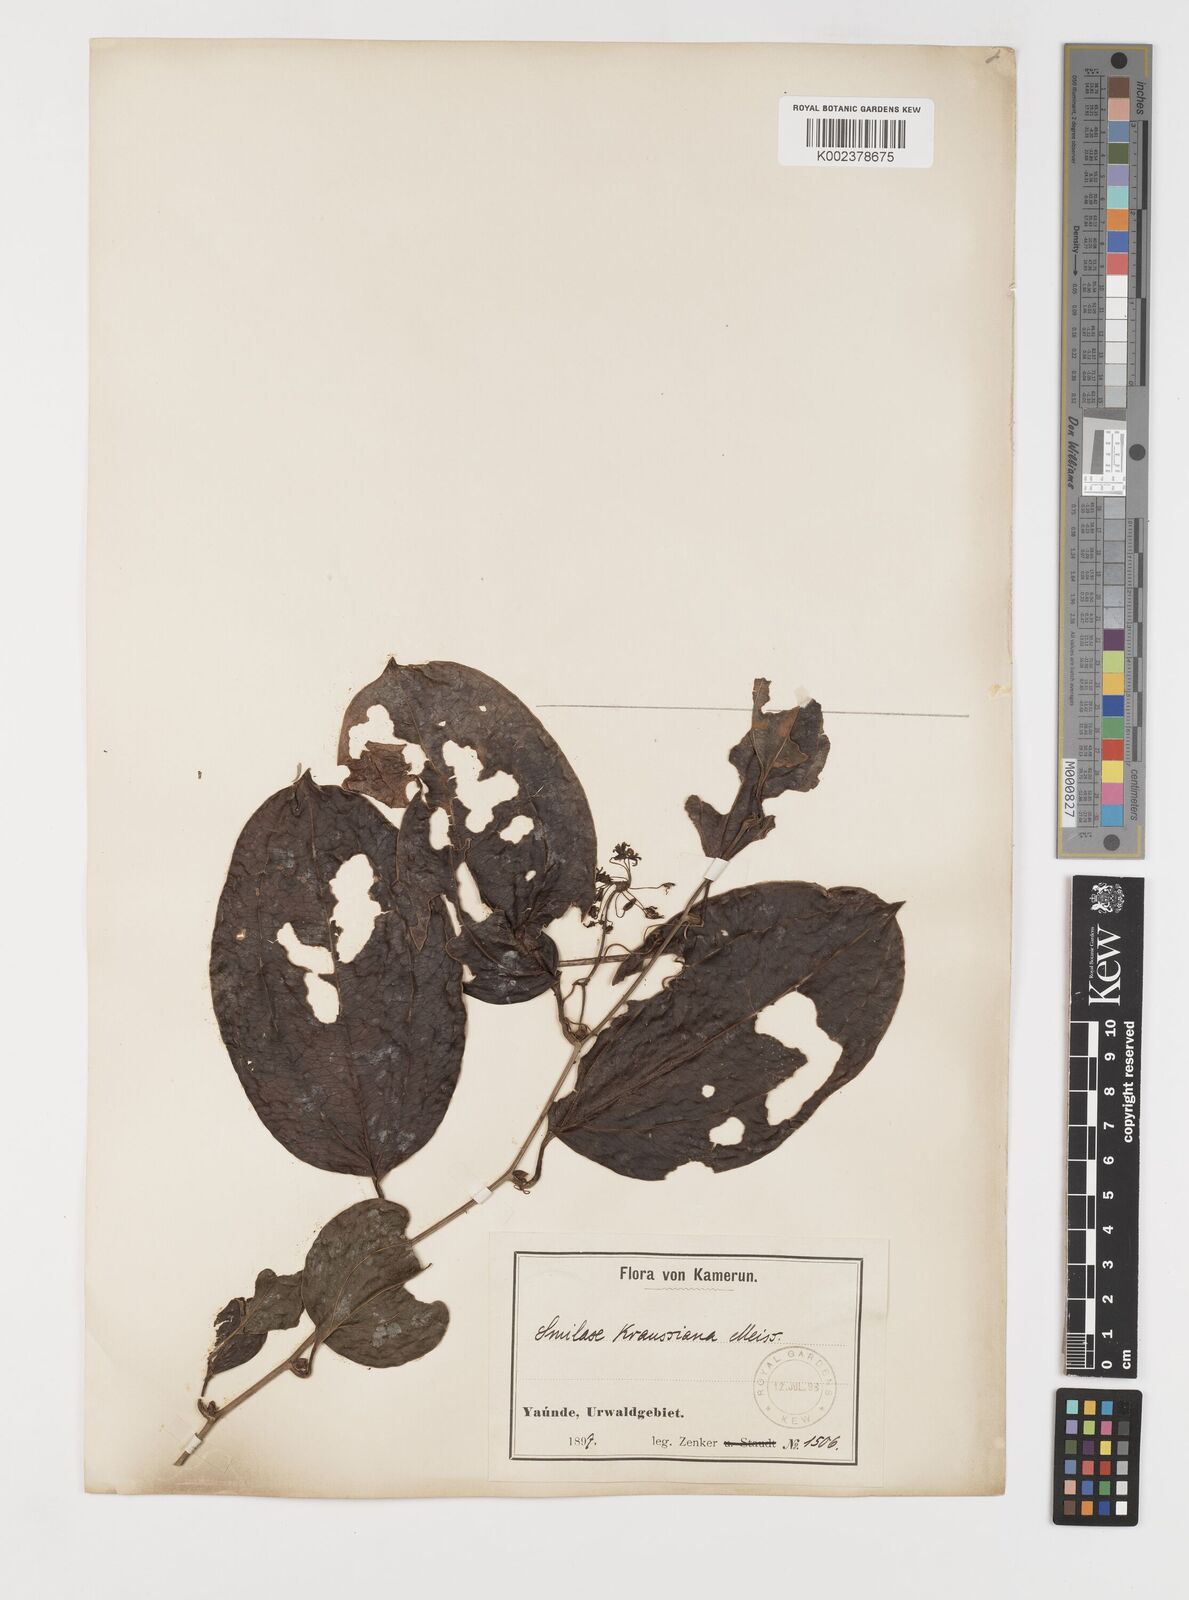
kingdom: Plantae
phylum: Tracheophyta
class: Liliopsida
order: Liliales
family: Smilacaceae
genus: Smilax
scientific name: Smilax anceps
